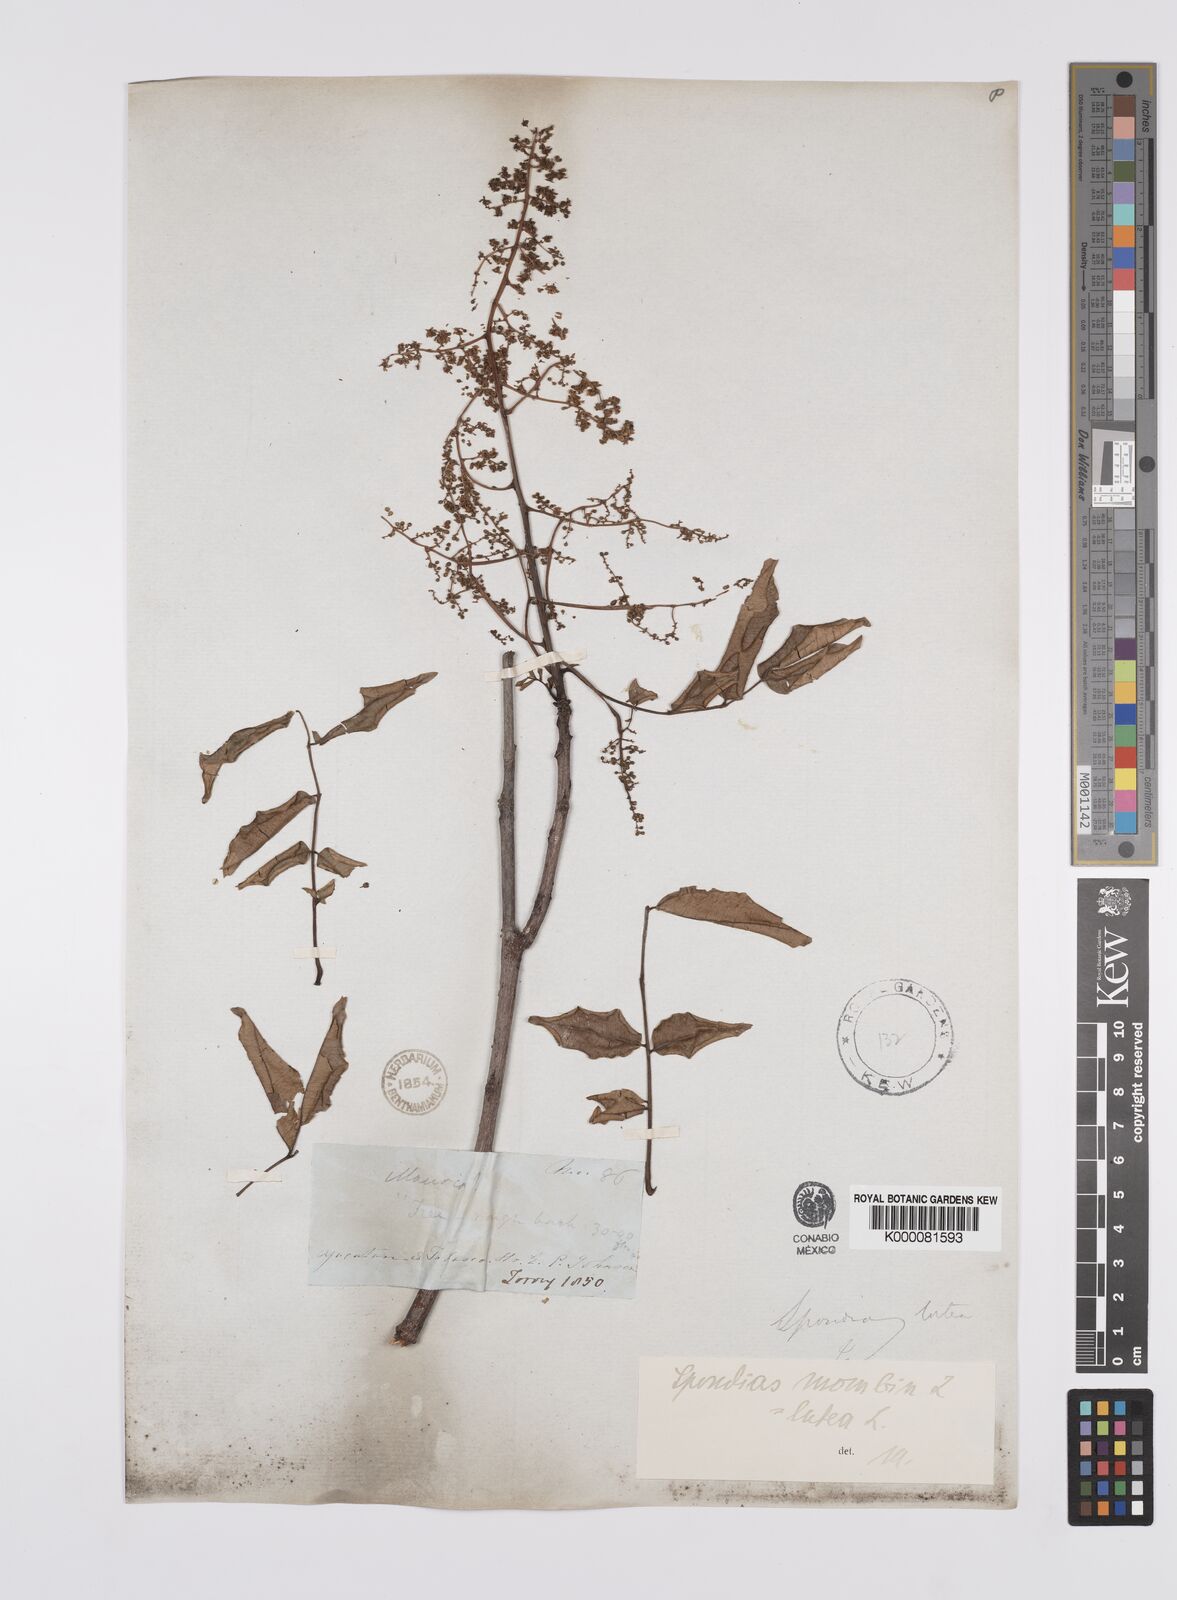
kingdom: Plantae
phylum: Tracheophyta
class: Magnoliopsida
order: Sapindales
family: Anacardiaceae
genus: Spondias
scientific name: Spondias mombin
